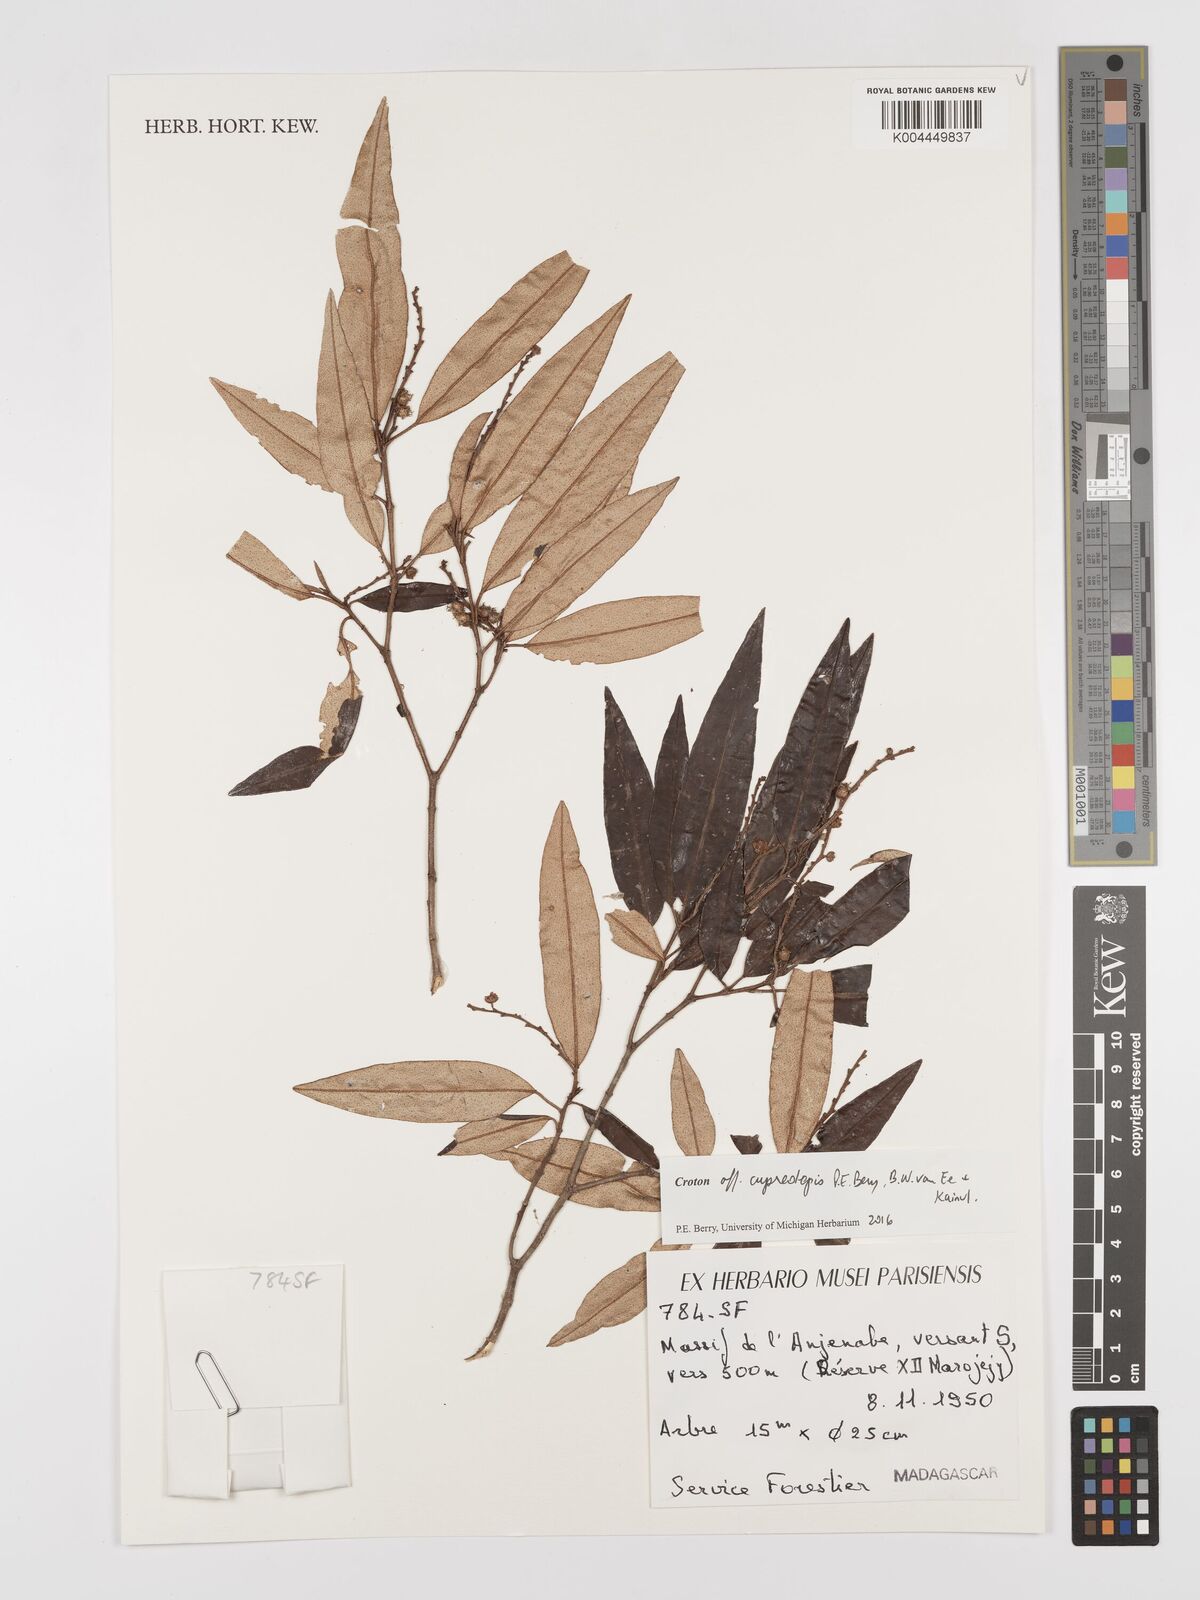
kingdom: Plantae
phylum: Tracheophyta
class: Magnoliopsida
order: Malpighiales
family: Euphorbiaceae
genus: Croton
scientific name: Croton cupreolepis
